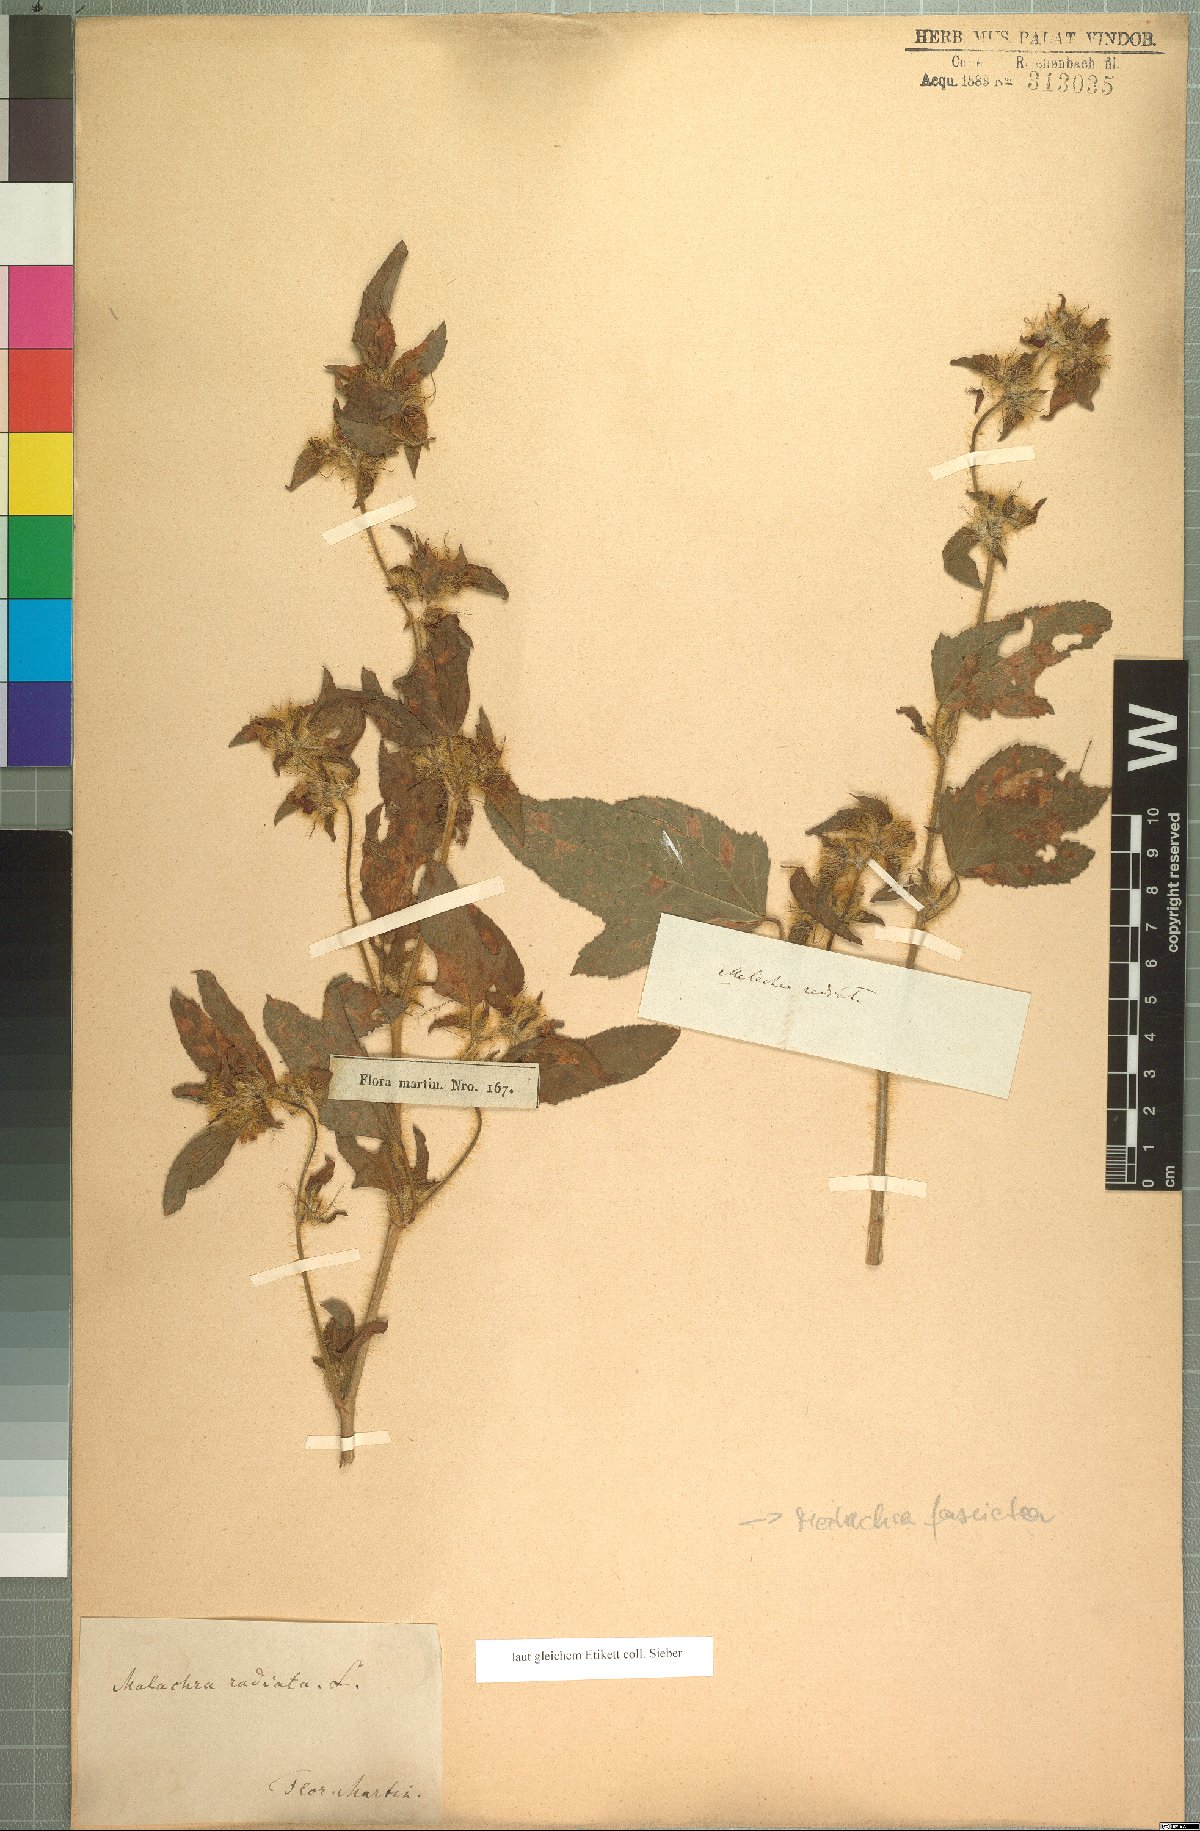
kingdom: Plantae
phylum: Tracheophyta
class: Magnoliopsida
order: Malvales
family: Malvaceae
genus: Malachra
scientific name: Malachra fasciata
